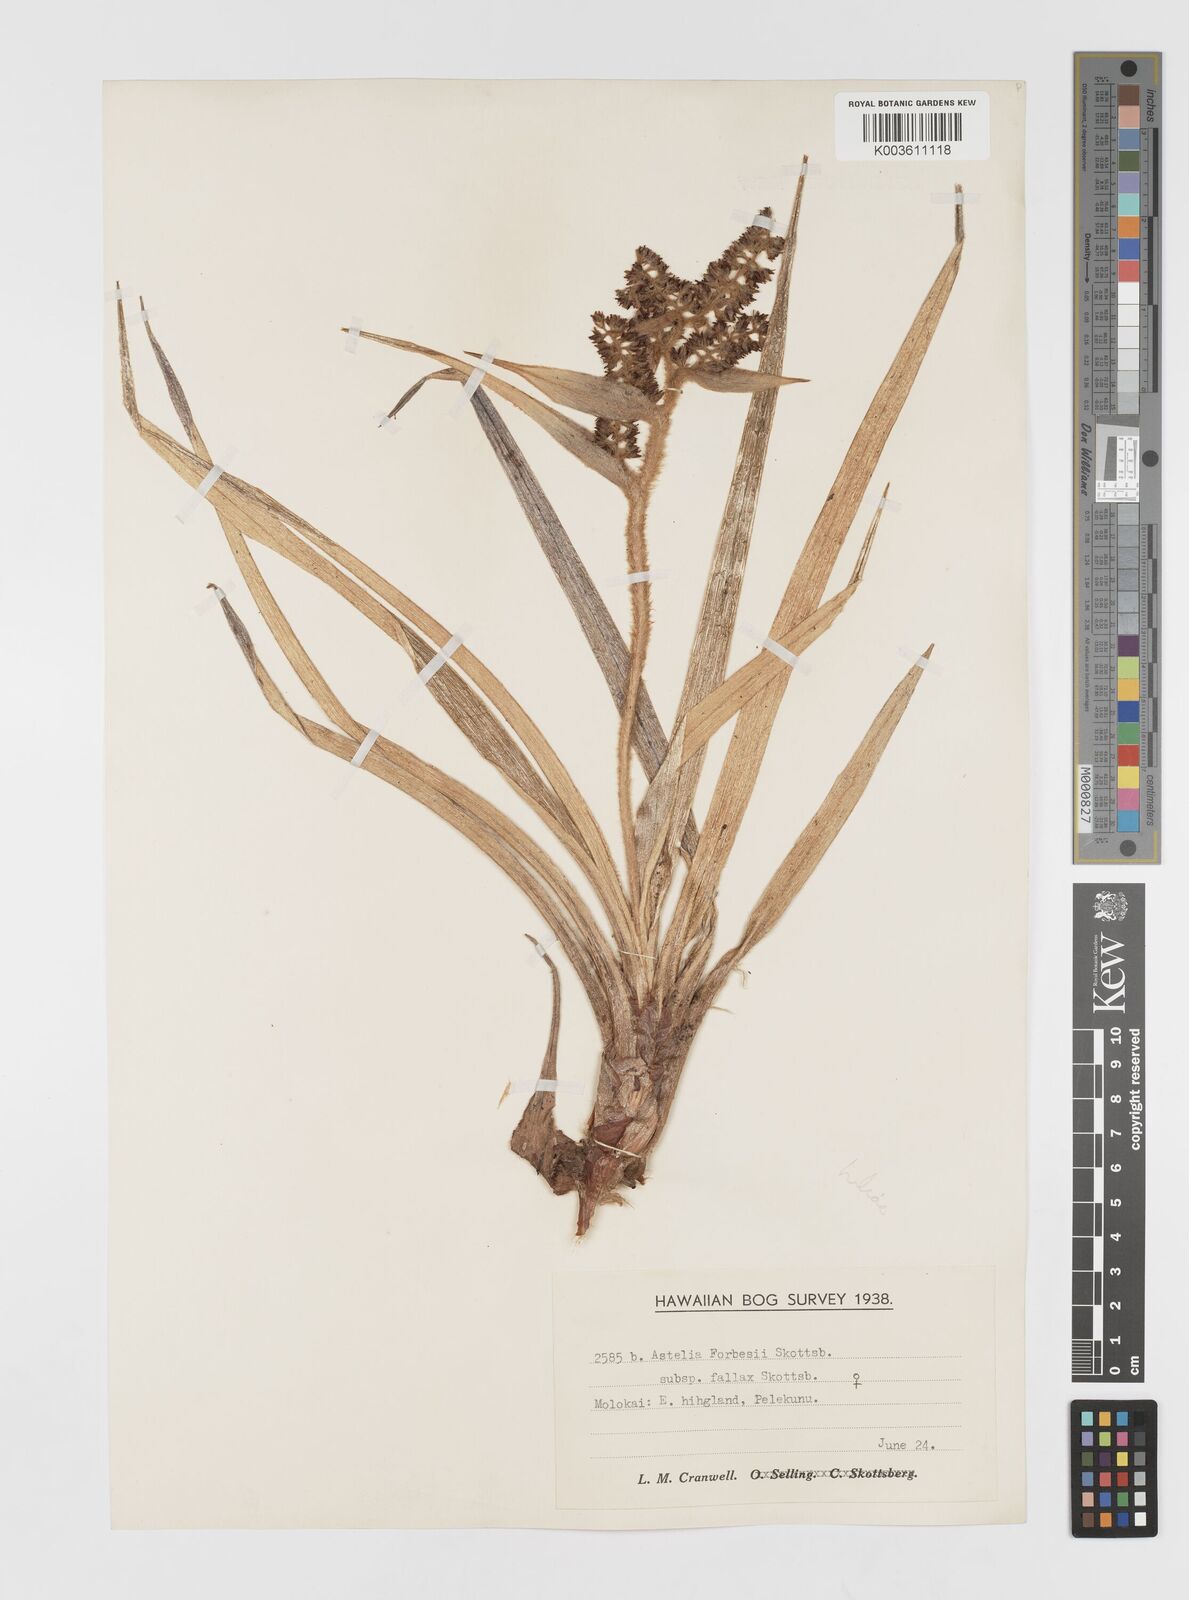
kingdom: Plantae
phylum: Tracheophyta
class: Liliopsida
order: Asparagales
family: Asteliaceae
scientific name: Asteliaceae
